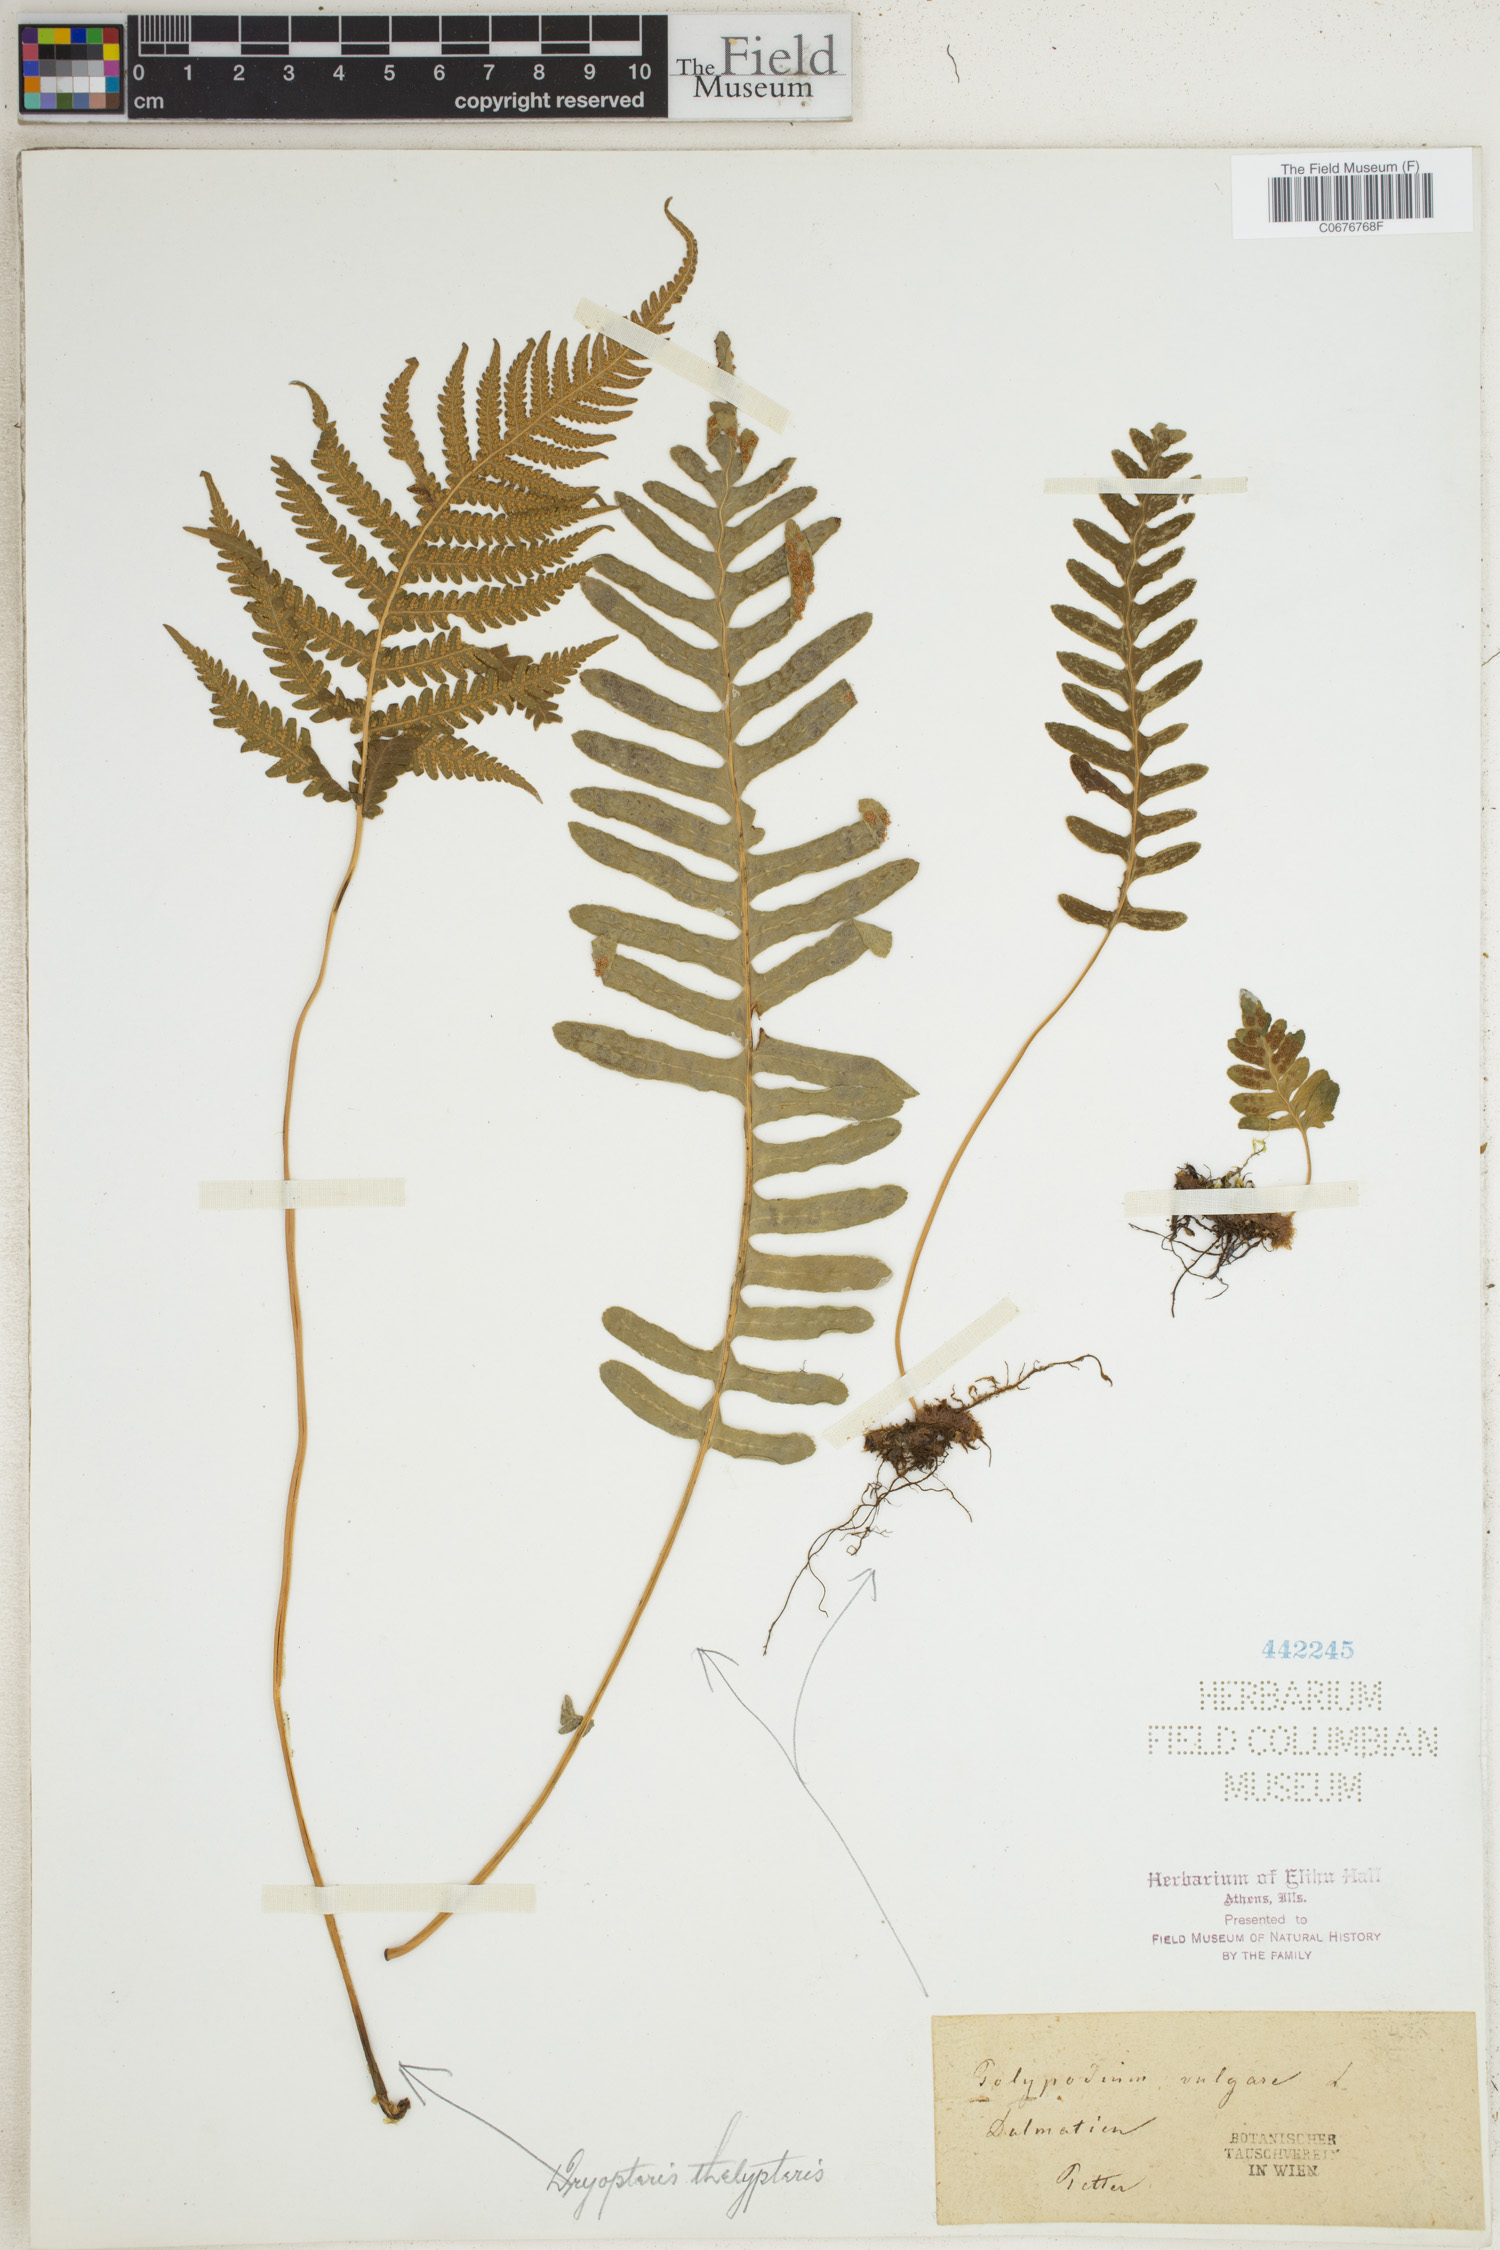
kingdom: Plantae
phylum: Tracheophyta
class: Polypodiopsida
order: Polypodiales
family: Polypodiaceae
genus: Polypodium
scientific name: Polypodium vulgare
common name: Common polypody
